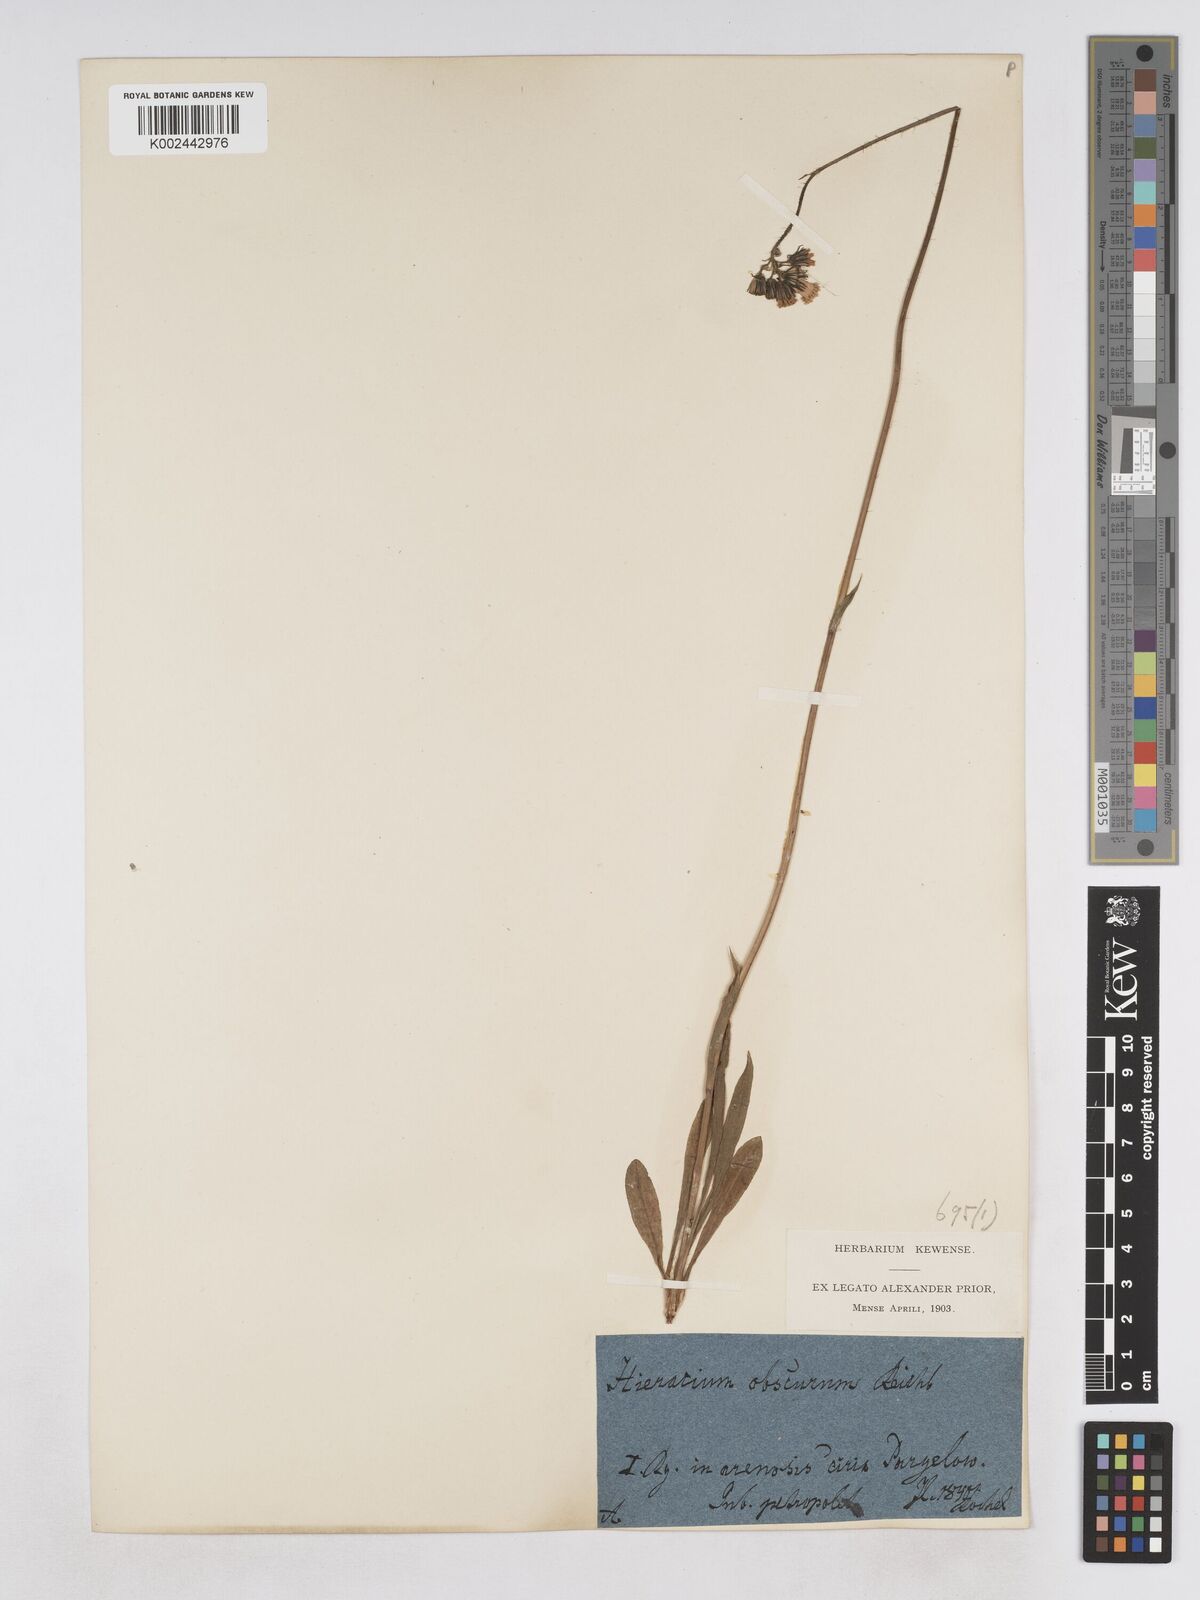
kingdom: Plantae
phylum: Tracheophyta
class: Magnoliopsida
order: Asterales
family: Asteraceae
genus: Pilosella
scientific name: Pilosella piloselloides
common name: Glaucous king-devil
